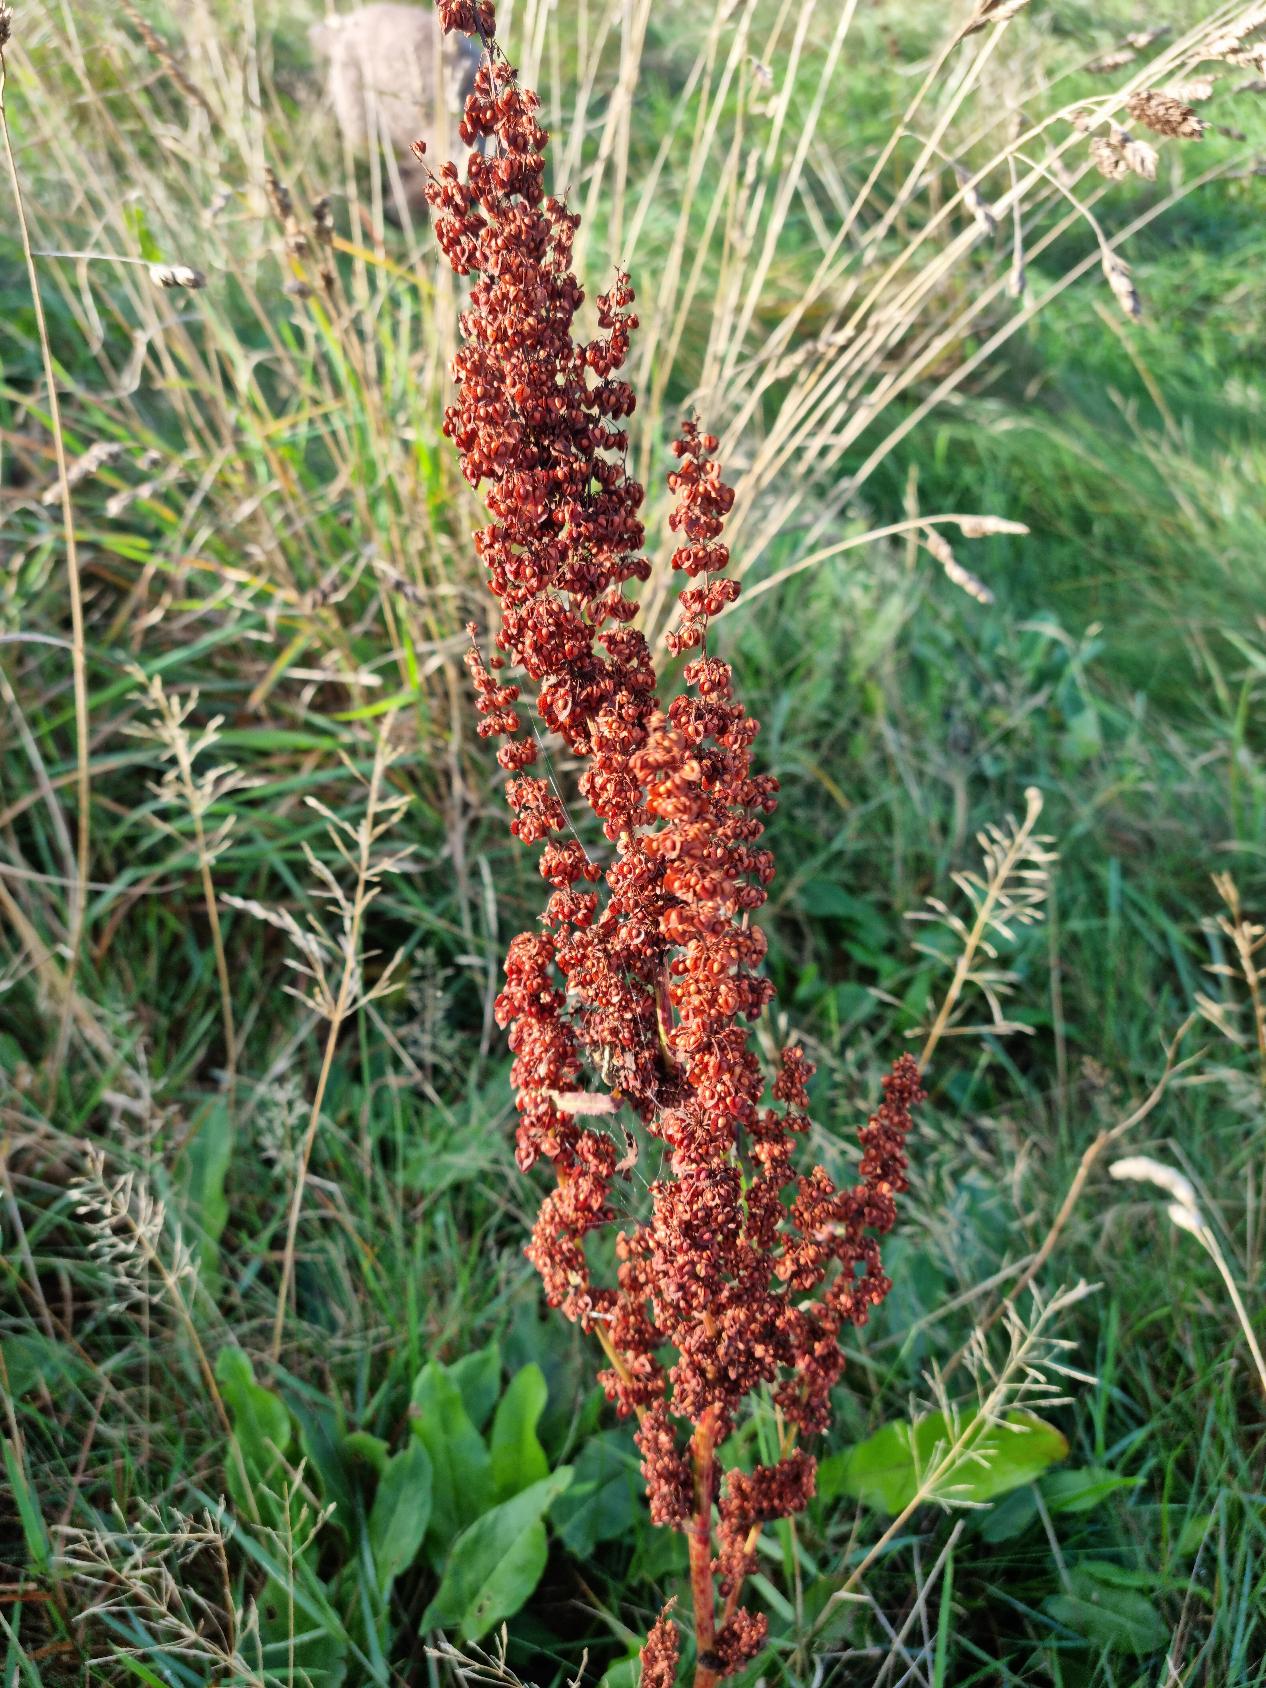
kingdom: Plantae
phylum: Tracheophyta
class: Magnoliopsida
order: Caryophyllales
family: Polygonaceae
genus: Rumex
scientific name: Rumex crispus
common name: Kruset skræppe
